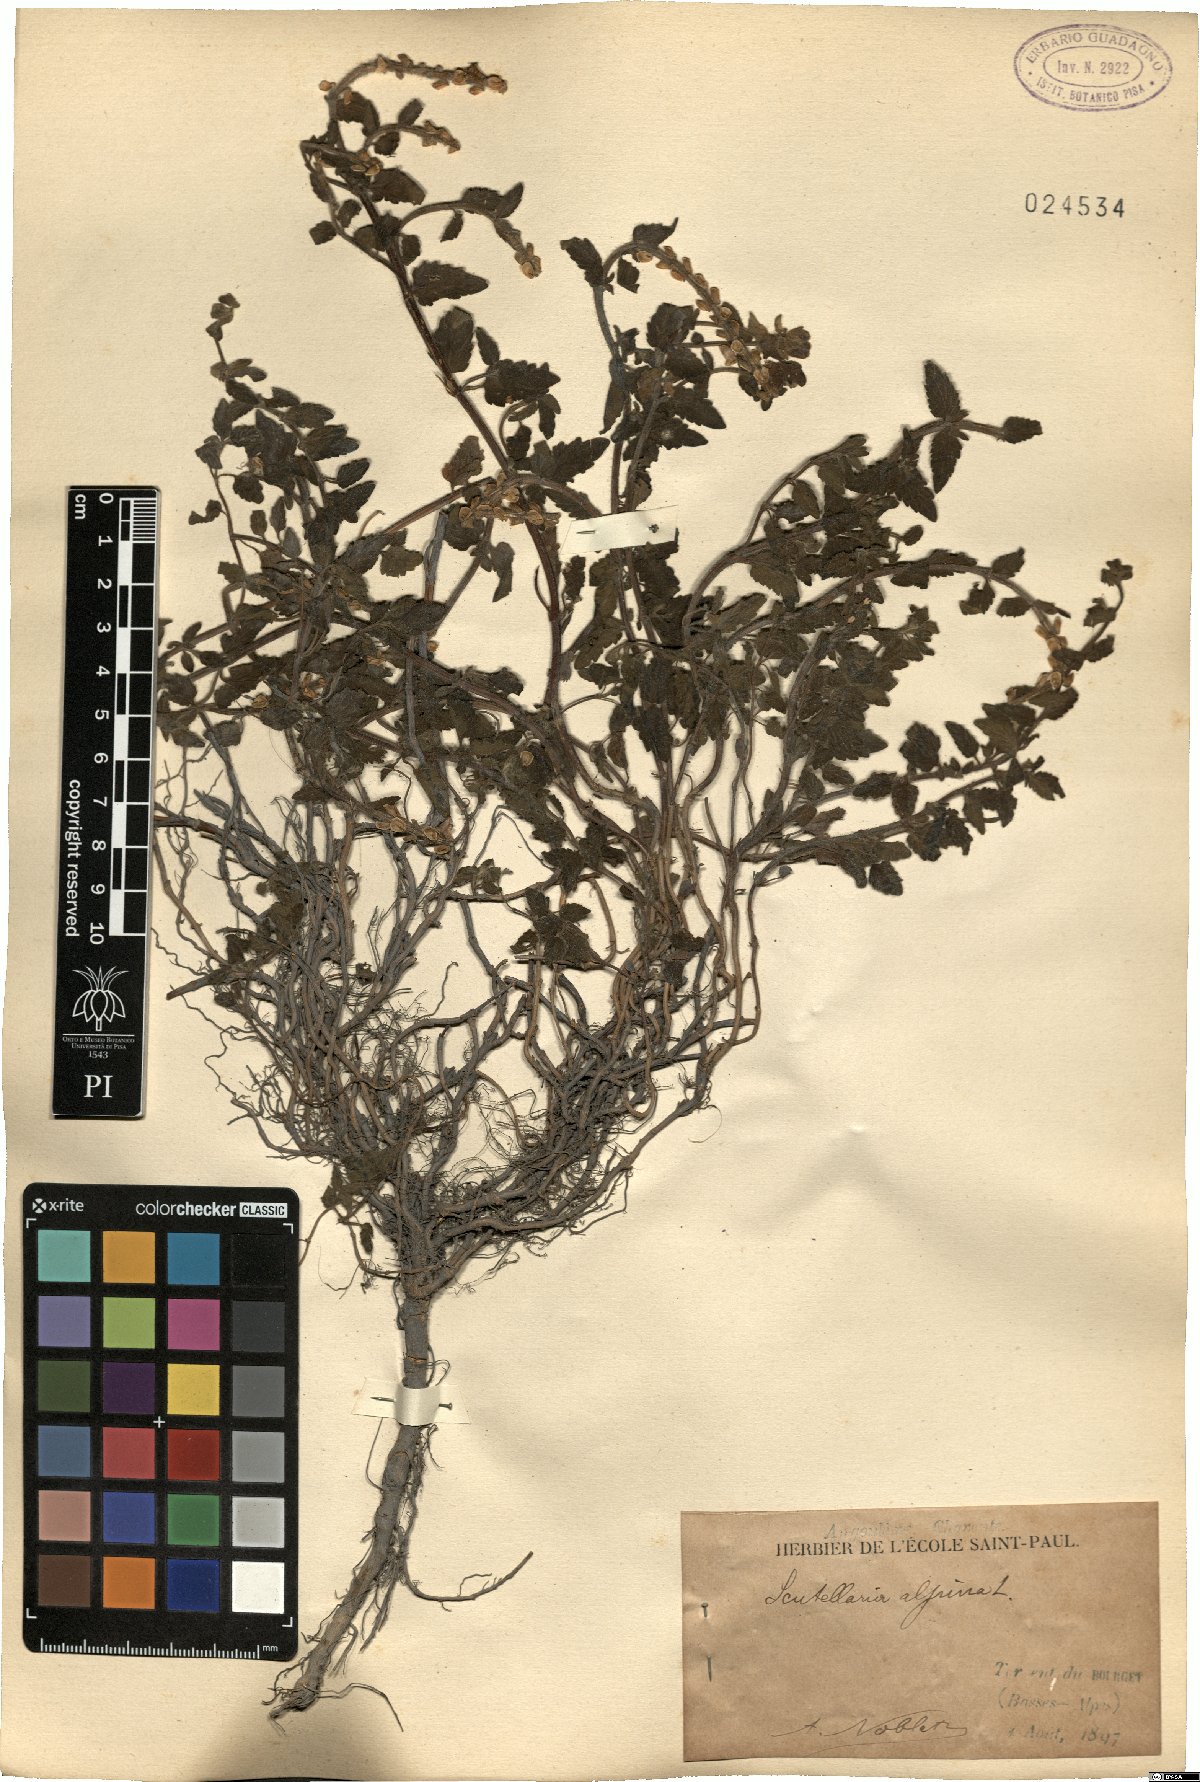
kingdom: Plantae
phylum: Tracheophyta
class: Magnoliopsida
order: Lamiales
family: Lamiaceae
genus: Scutellaria
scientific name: Scutellaria alpina
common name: Alpine scullcap
